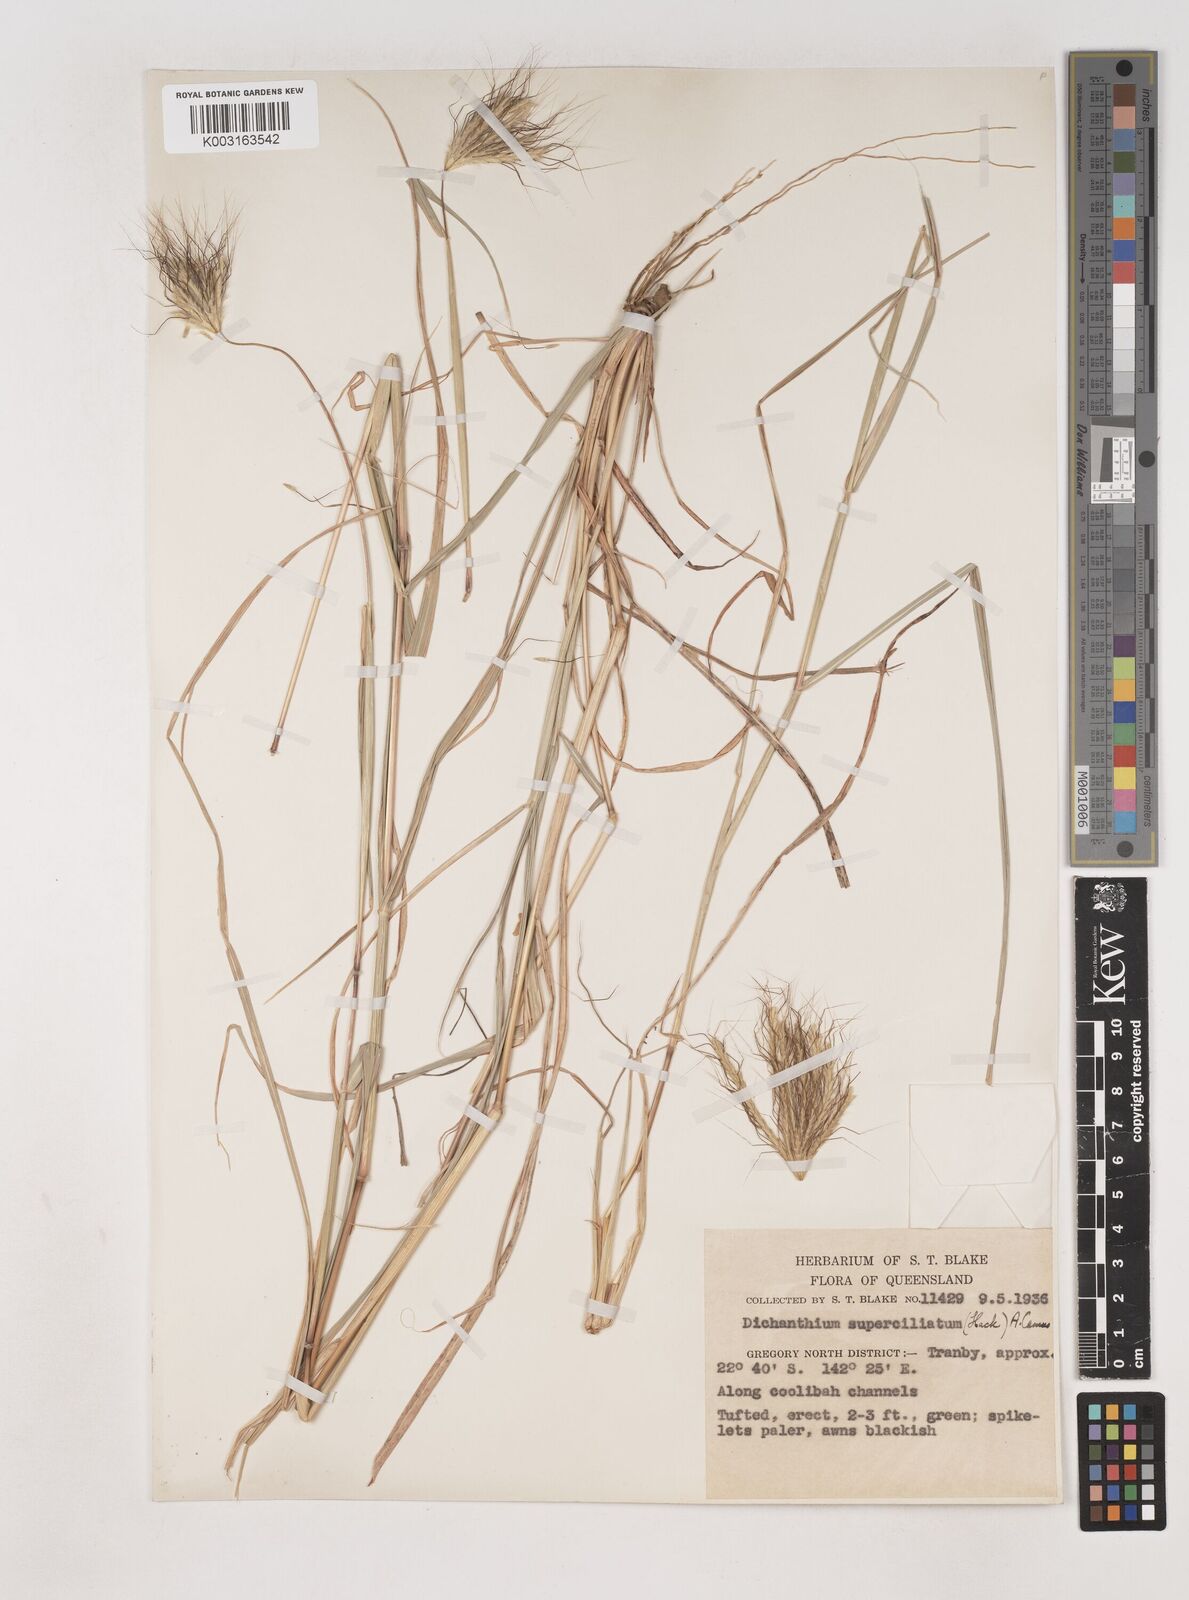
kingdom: Plantae
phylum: Tracheophyta
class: Liliopsida
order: Poales
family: Poaceae
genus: Dichanthium
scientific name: Dichanthium sericeum
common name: Silky bluestem
